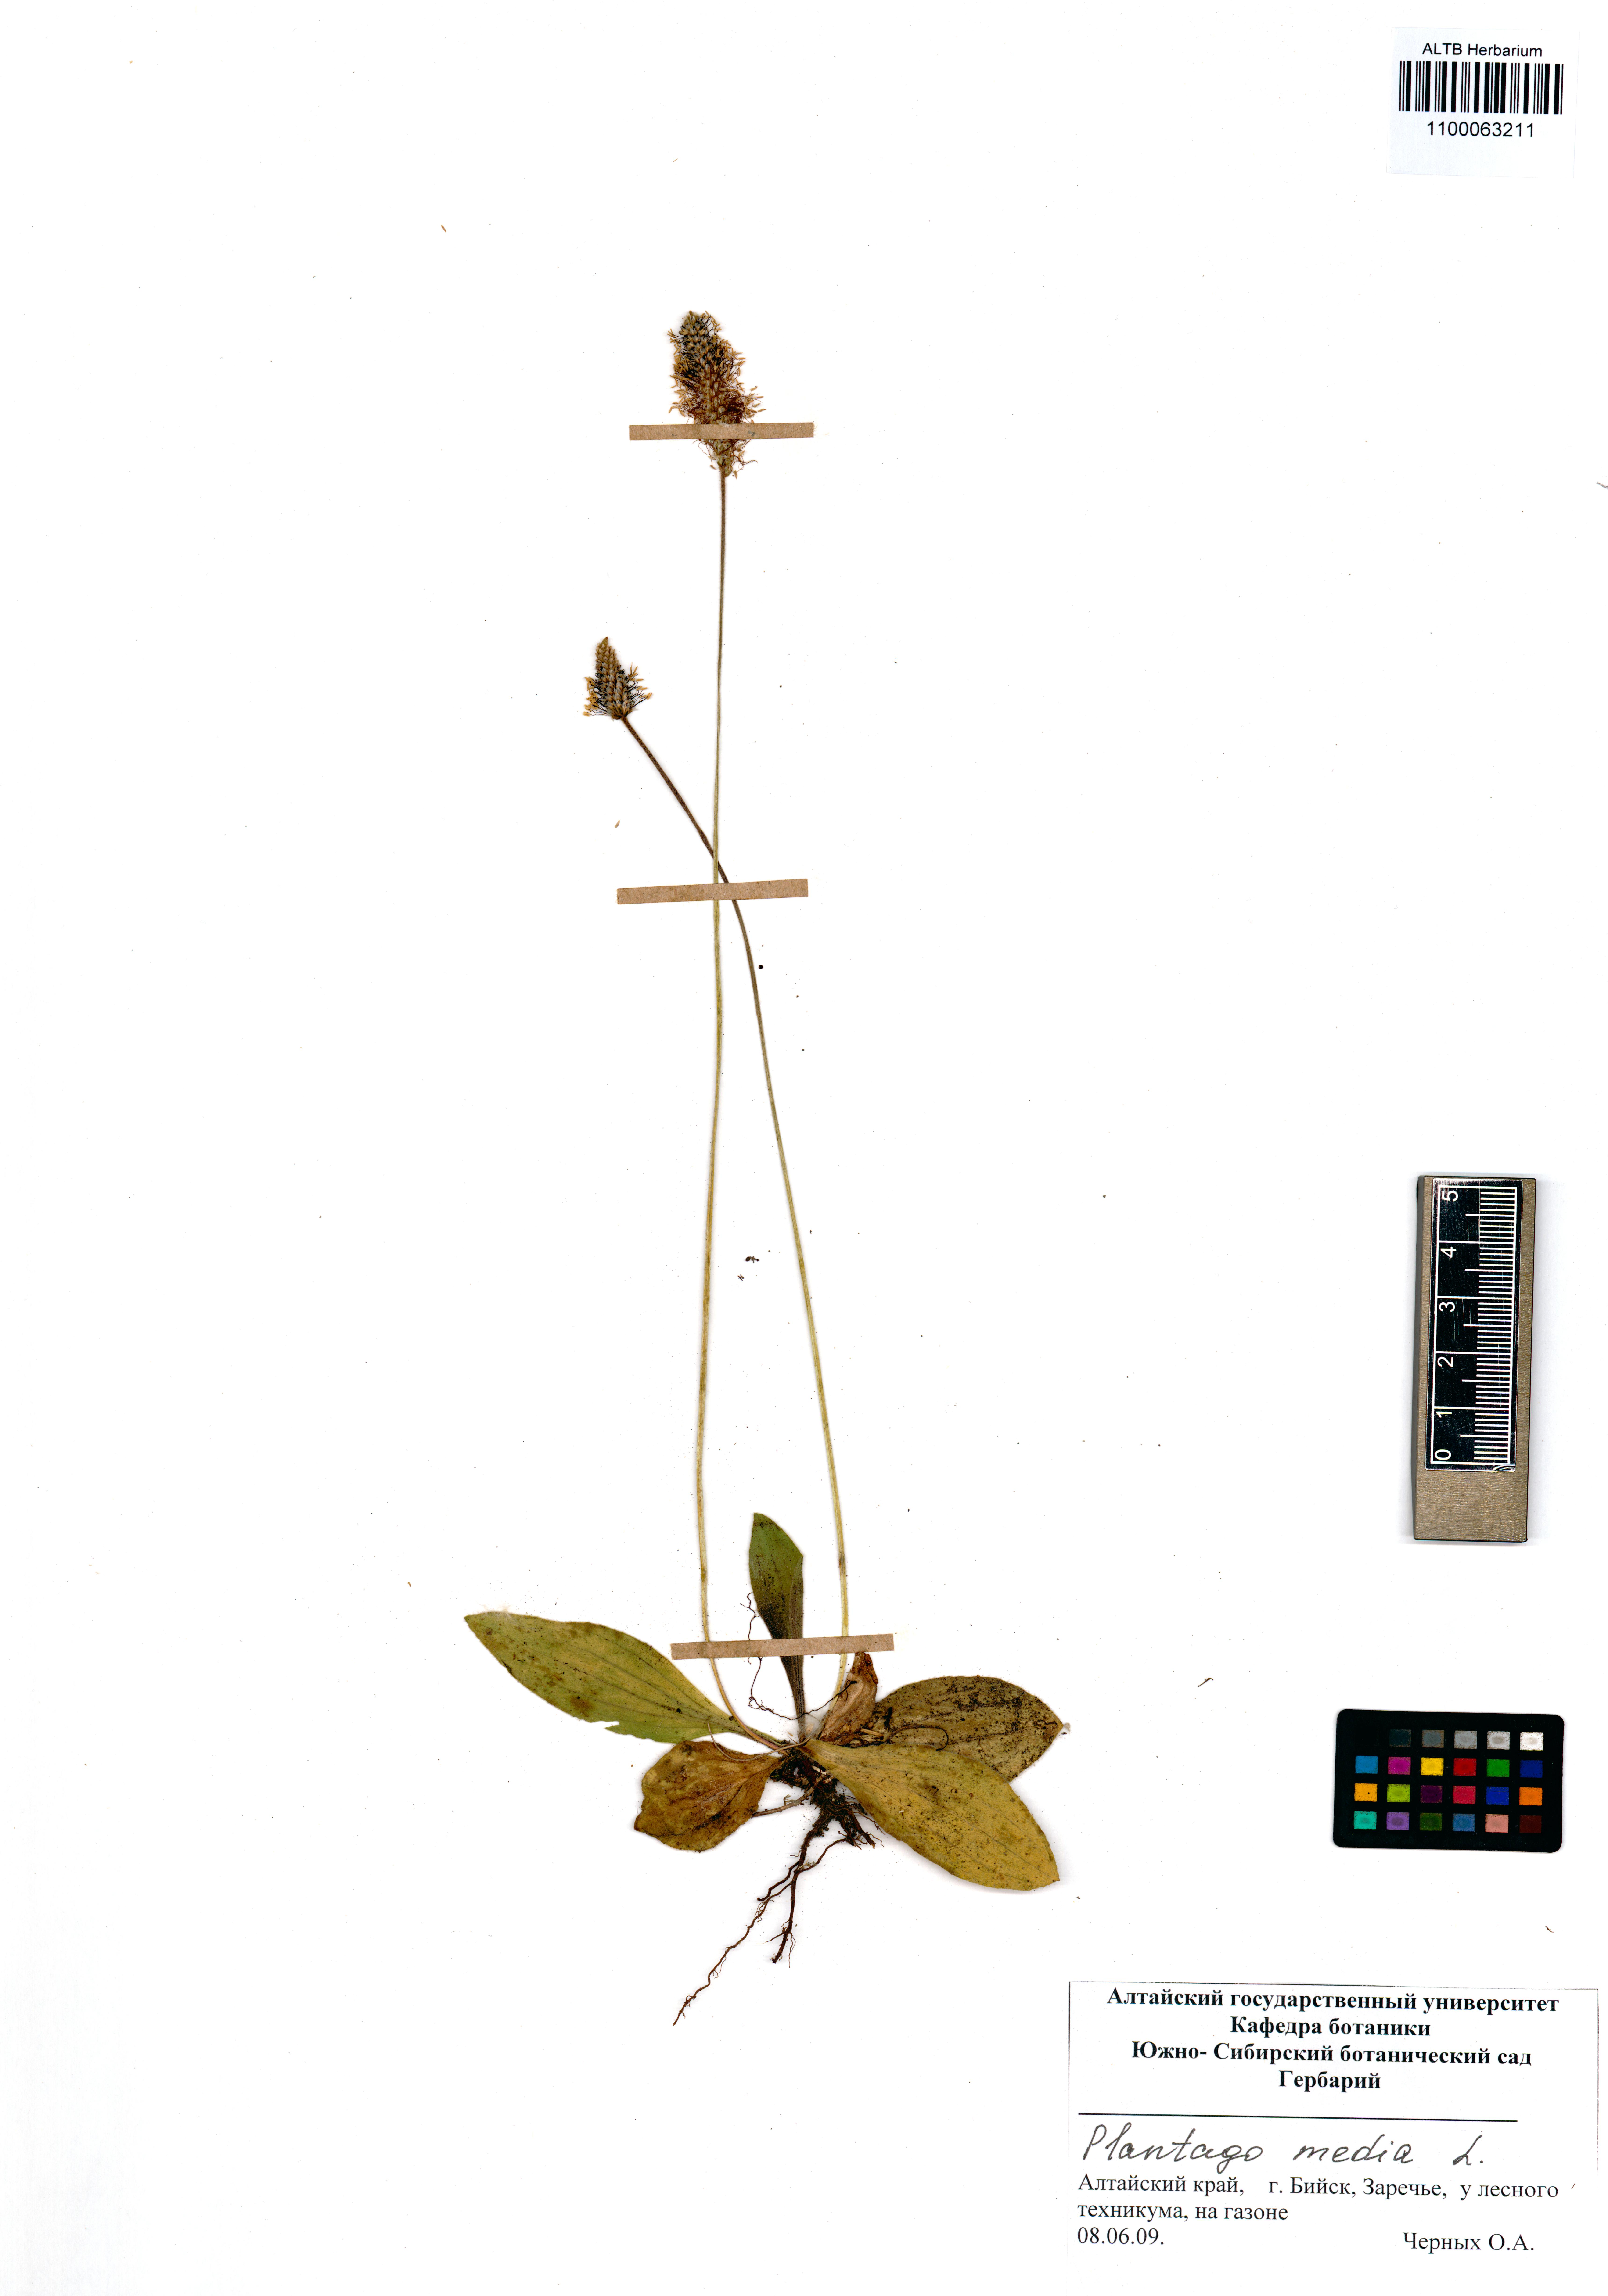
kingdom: Plantae
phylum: Tracheophyta
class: Magnoliopsida
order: Lamiales
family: Plantaginaceae
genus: Plantago
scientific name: Plantago media
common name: Hoary plantain
